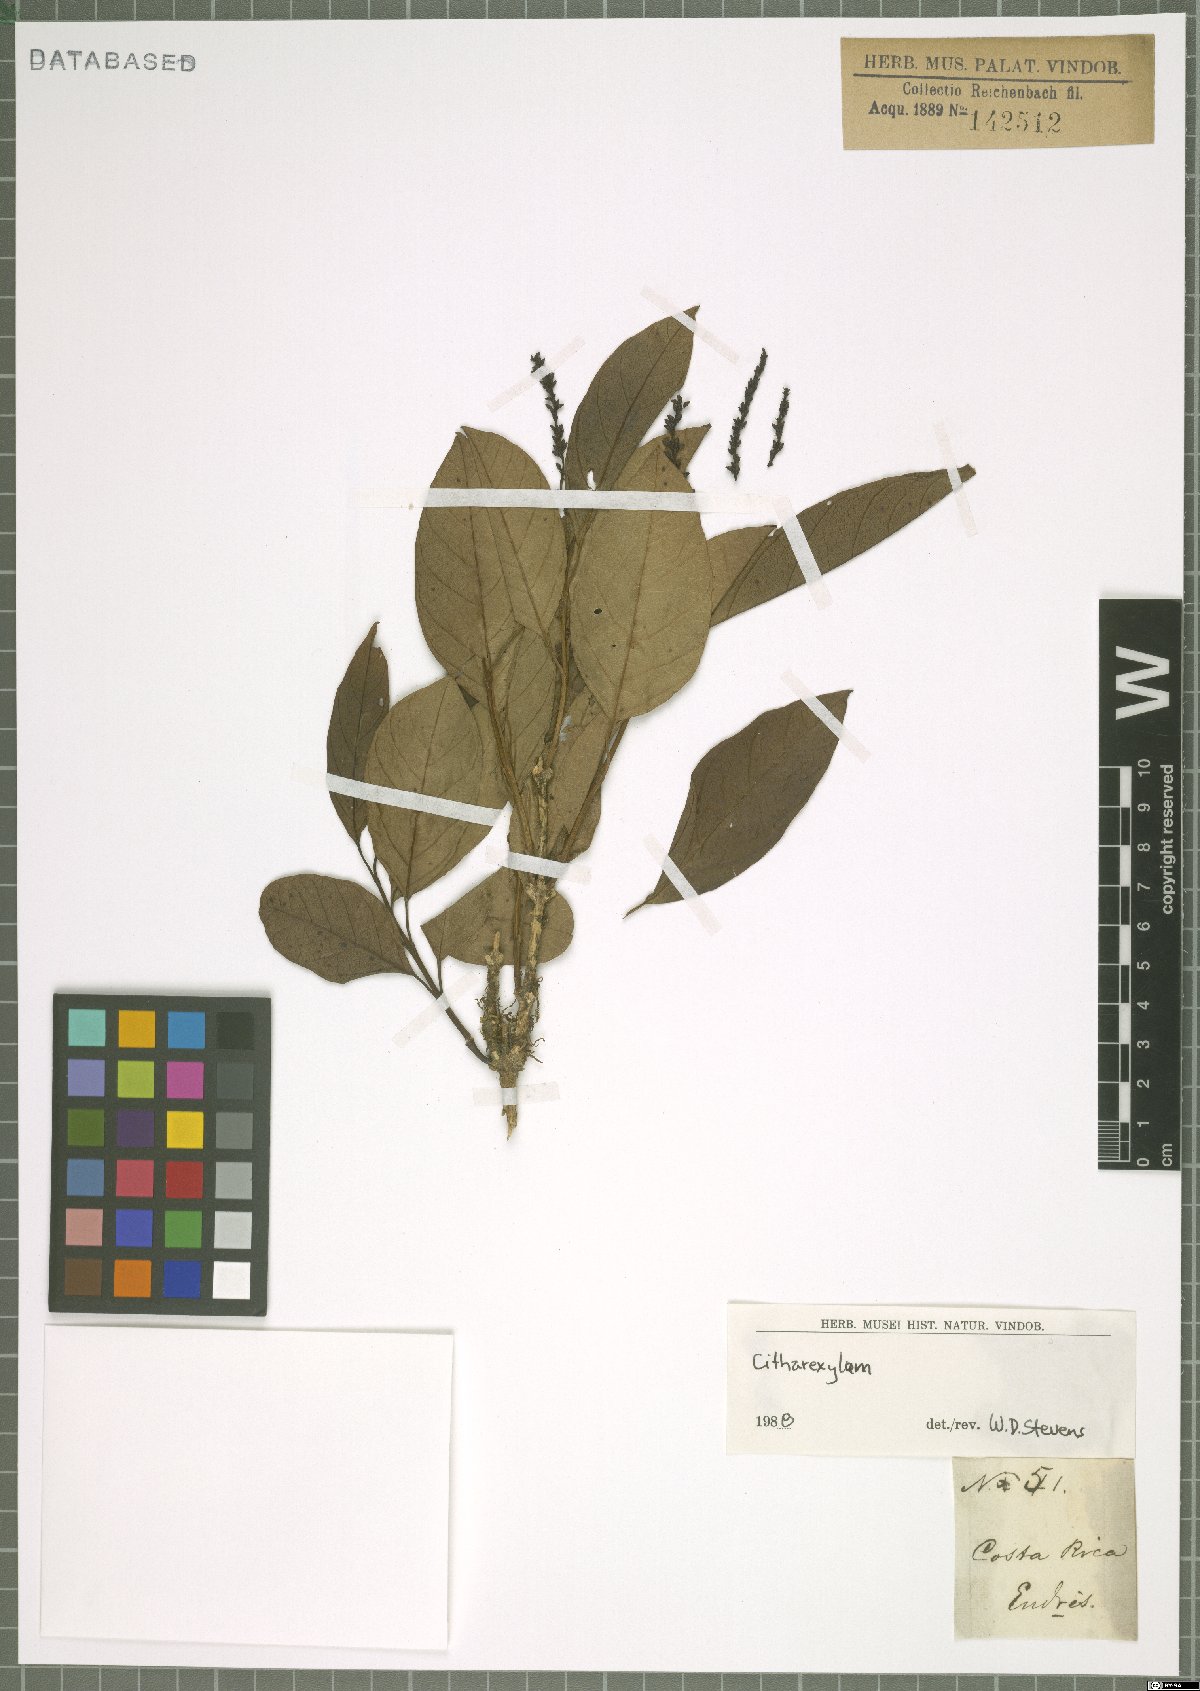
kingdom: Plantae
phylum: Tracheophyta
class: Magnoliopsida
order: Lamiales
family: Verbenaceae
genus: Citharexylum
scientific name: Citharexylum
